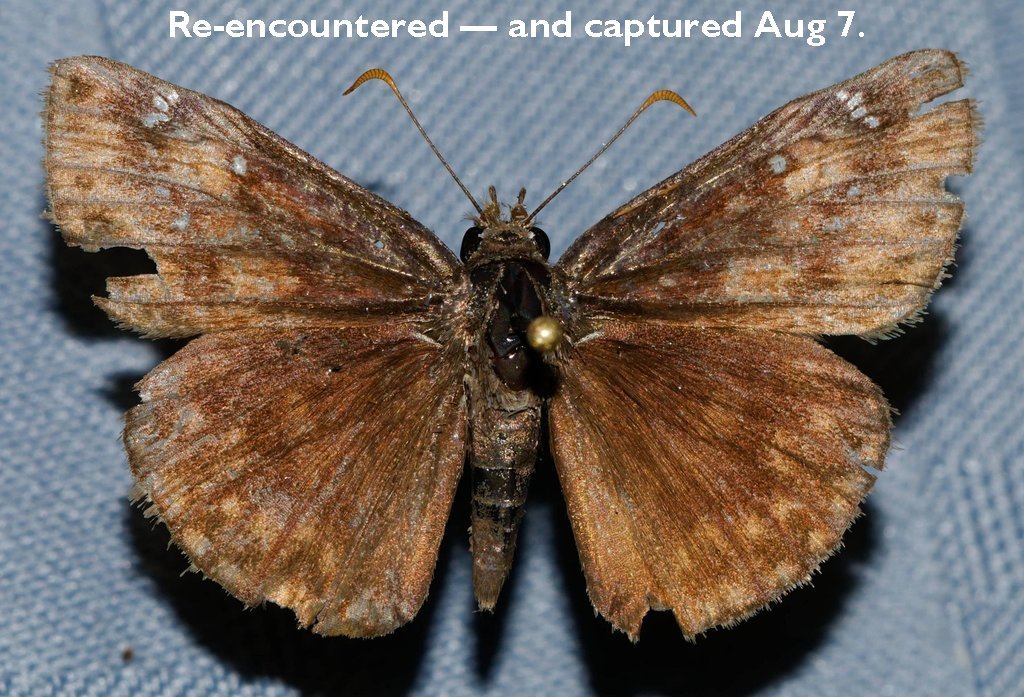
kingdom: Animalia
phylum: Arthropoda
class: Insecta
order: Lepidoptera
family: Hesperiidae
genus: Gesta
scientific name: Gesta
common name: Horace's Duskywing
